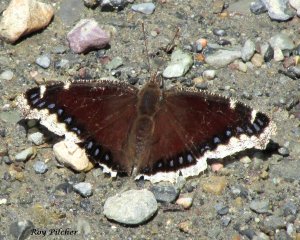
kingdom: Animalia
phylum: Arthropoda
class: Insecta
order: Lepidoptera
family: Nymphalidae
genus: Nymphalis
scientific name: Nymphalis antiopa
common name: Mourning Cloak
